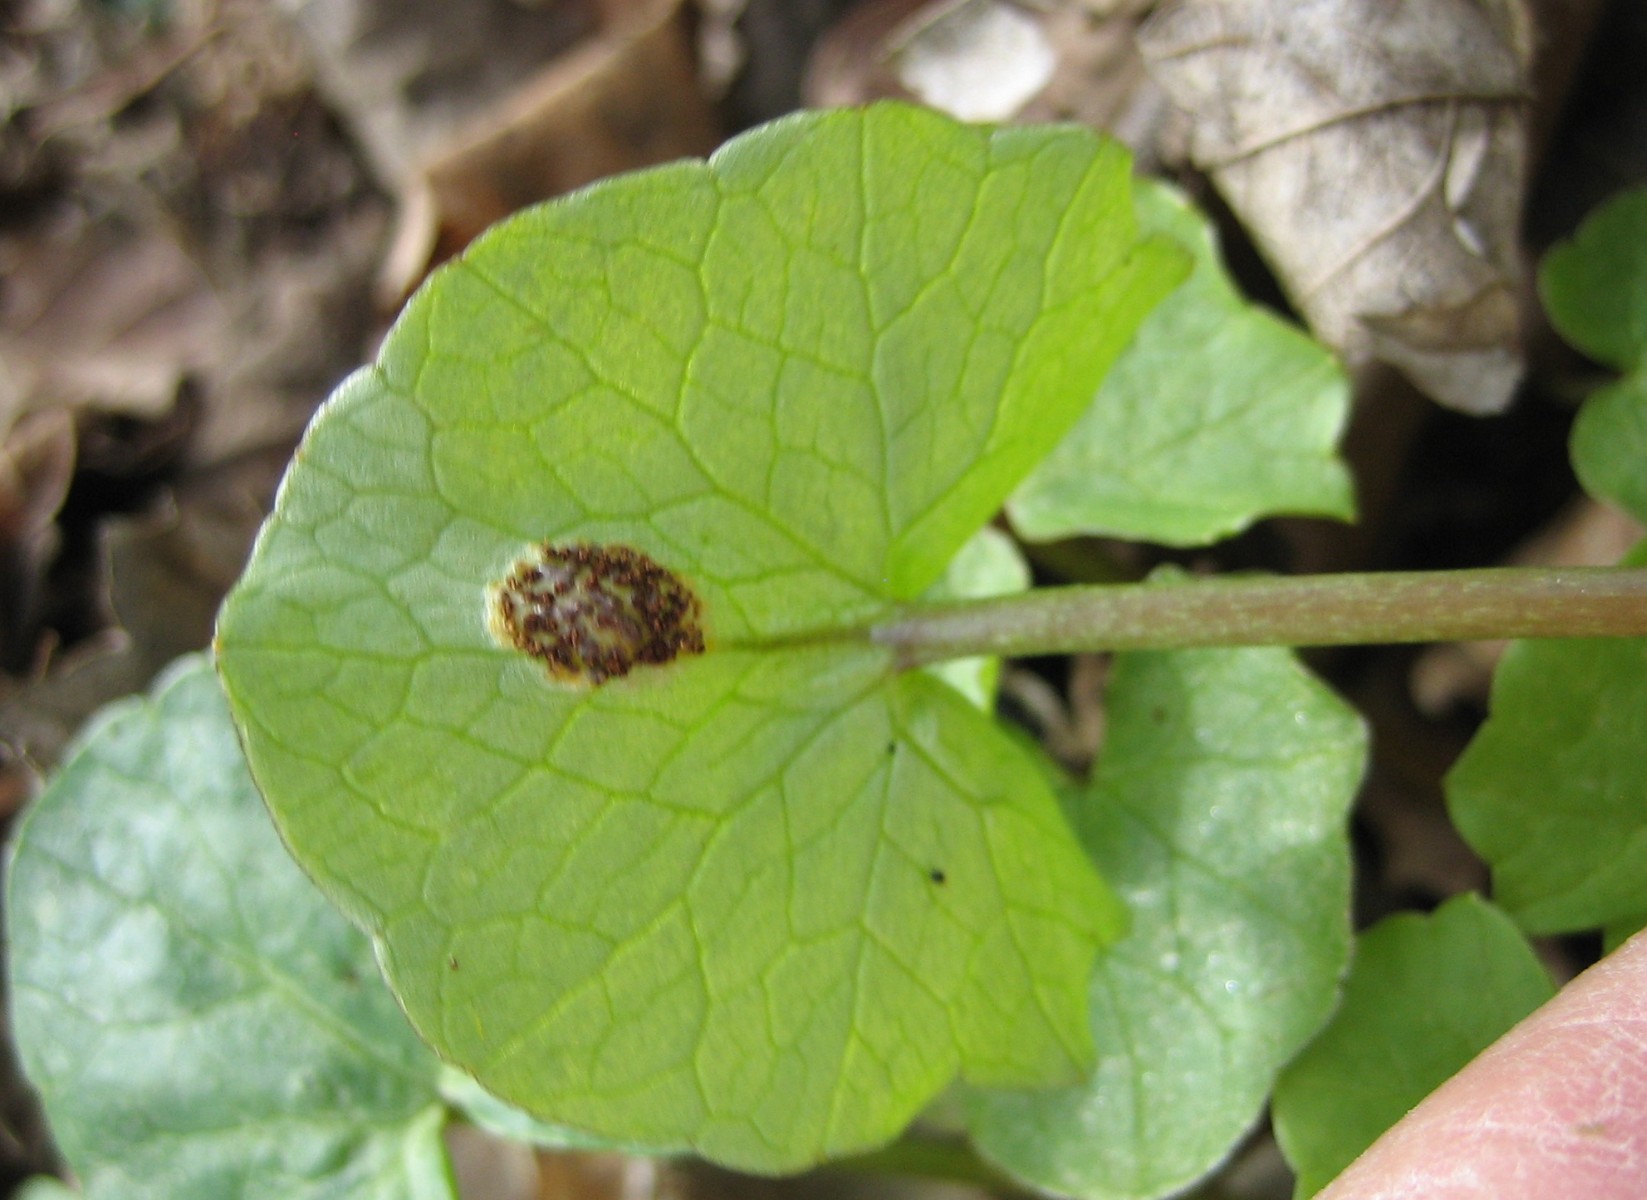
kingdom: Fungi
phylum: Basidiomycota
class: Pucciniomycetes
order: Pucciniales
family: Pucciniaceae
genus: Uromyces
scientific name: Uromyces ficariae
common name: vorterod-encellerust
